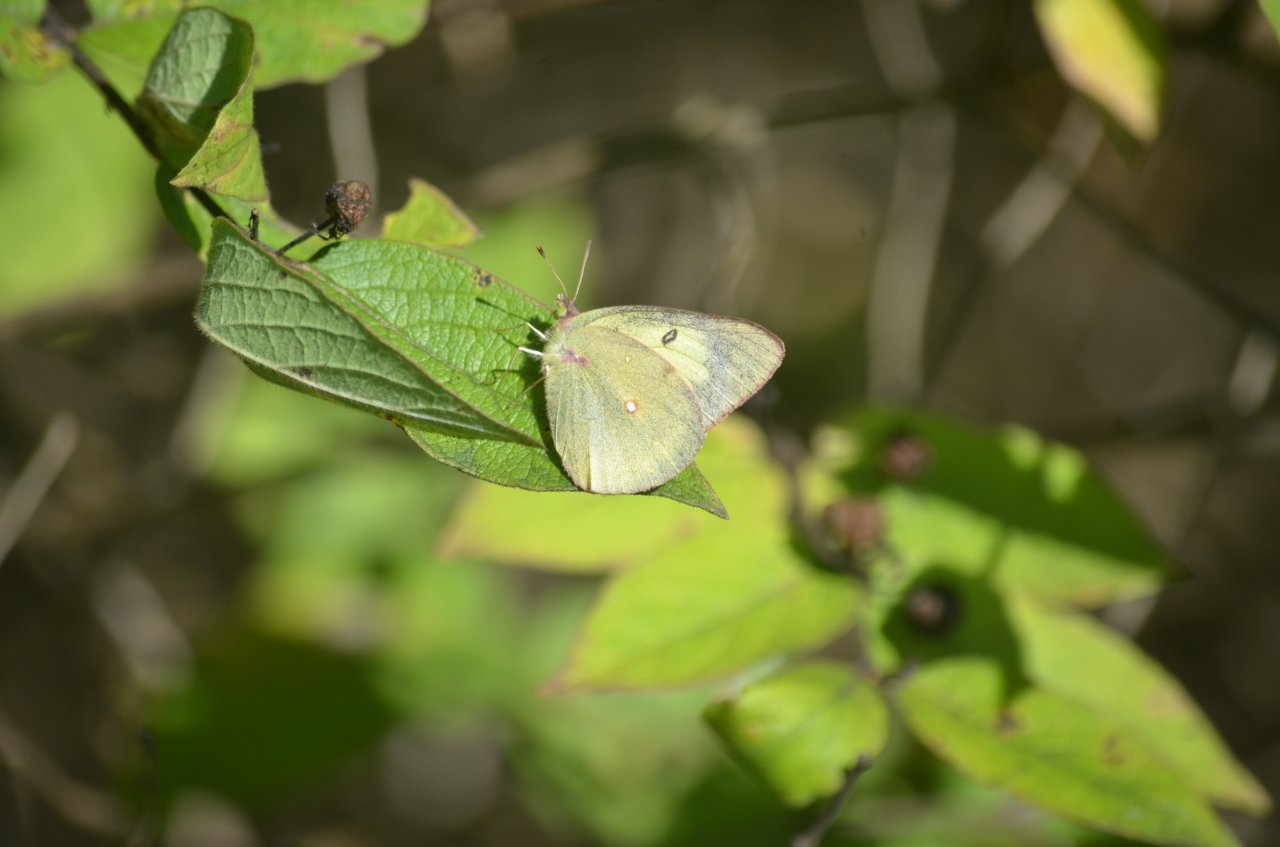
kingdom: Animalia
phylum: Arthropoda
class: Insecta
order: Lepidoptera
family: Pieridae
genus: Colias
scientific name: Colias philodice
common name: Clouded Sulphur
